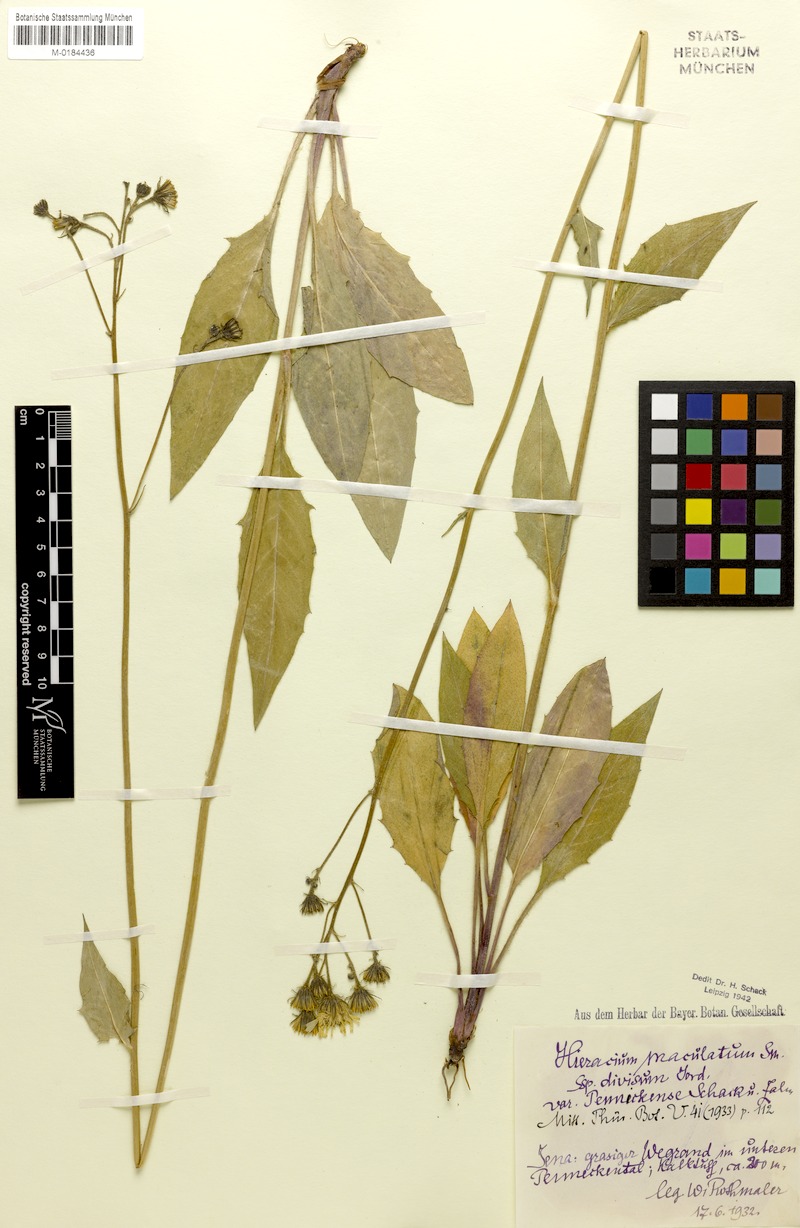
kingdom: Plantae
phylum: Tracheophyta
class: Magnoliopsida
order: Asterales
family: Asteraceae
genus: Hieracium
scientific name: Hieracium maculatum
